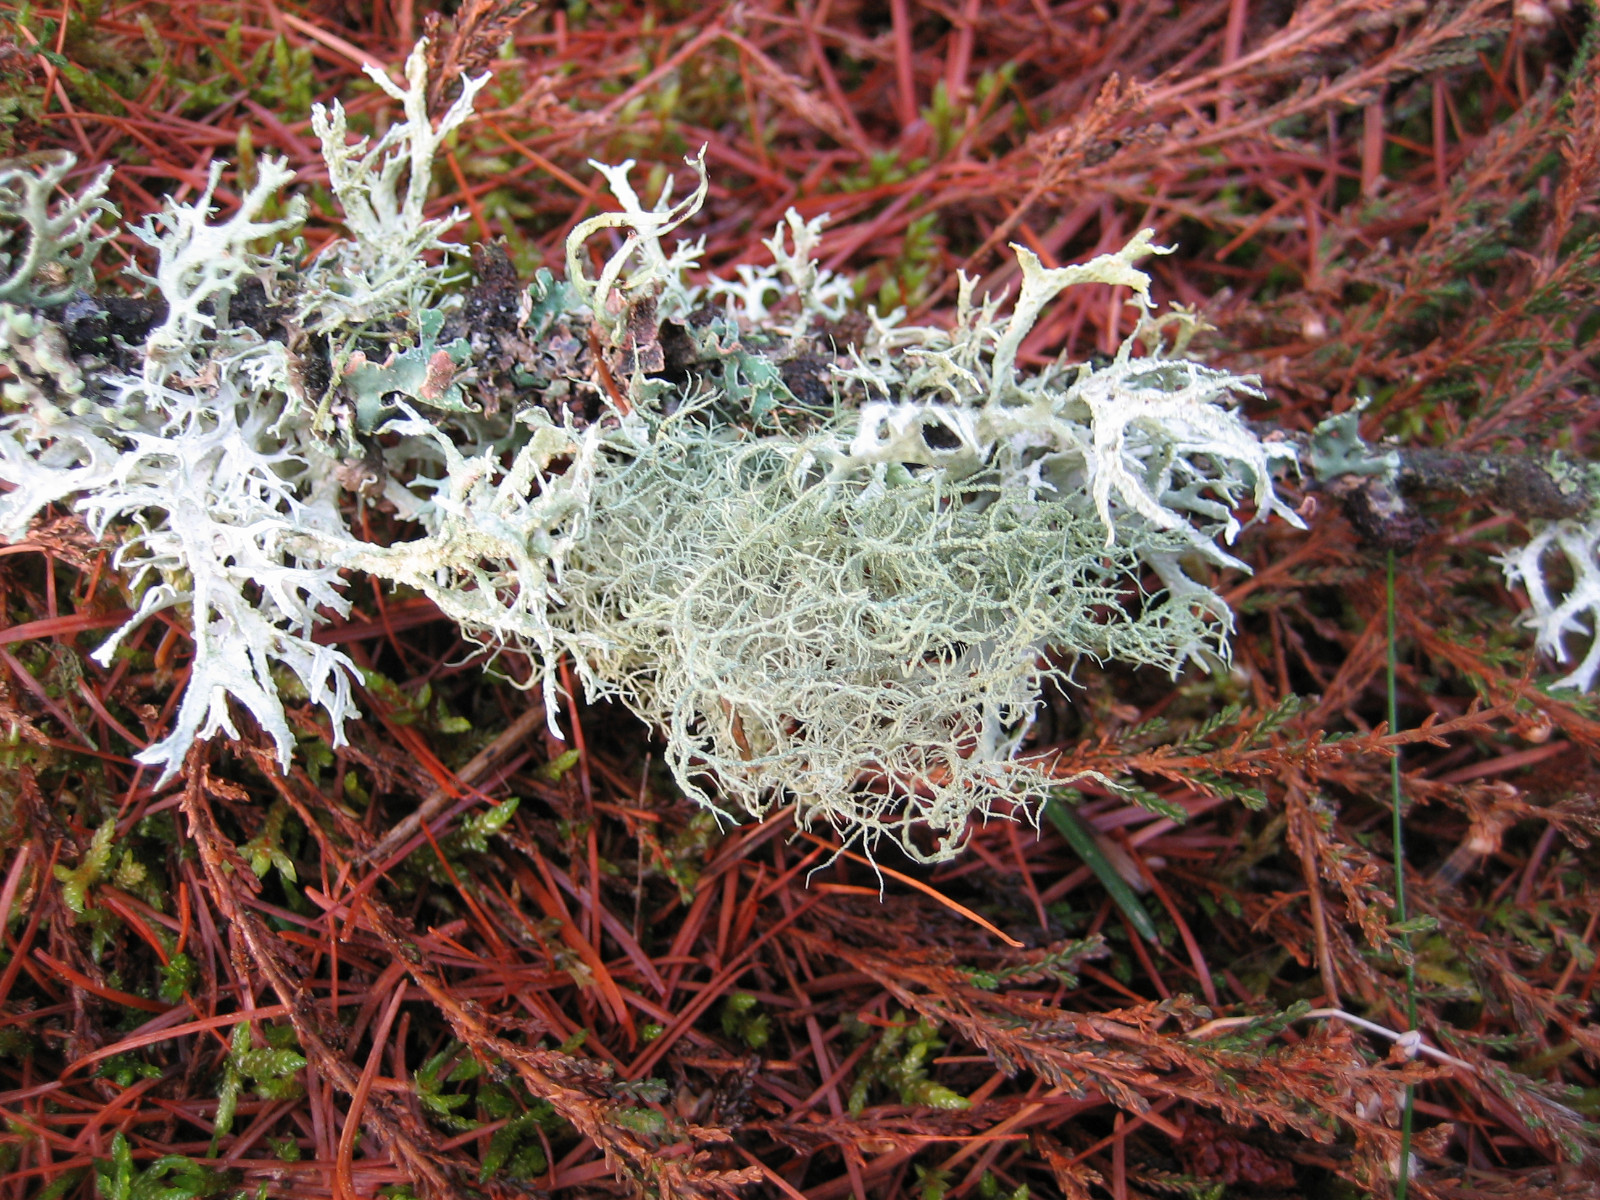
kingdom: Fungi
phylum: Ascomycota
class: Lecanoromycetes
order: Lecanorales
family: Parmeliaceae
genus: Usnea
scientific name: Usnea subfloridana
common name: busket skæglav
